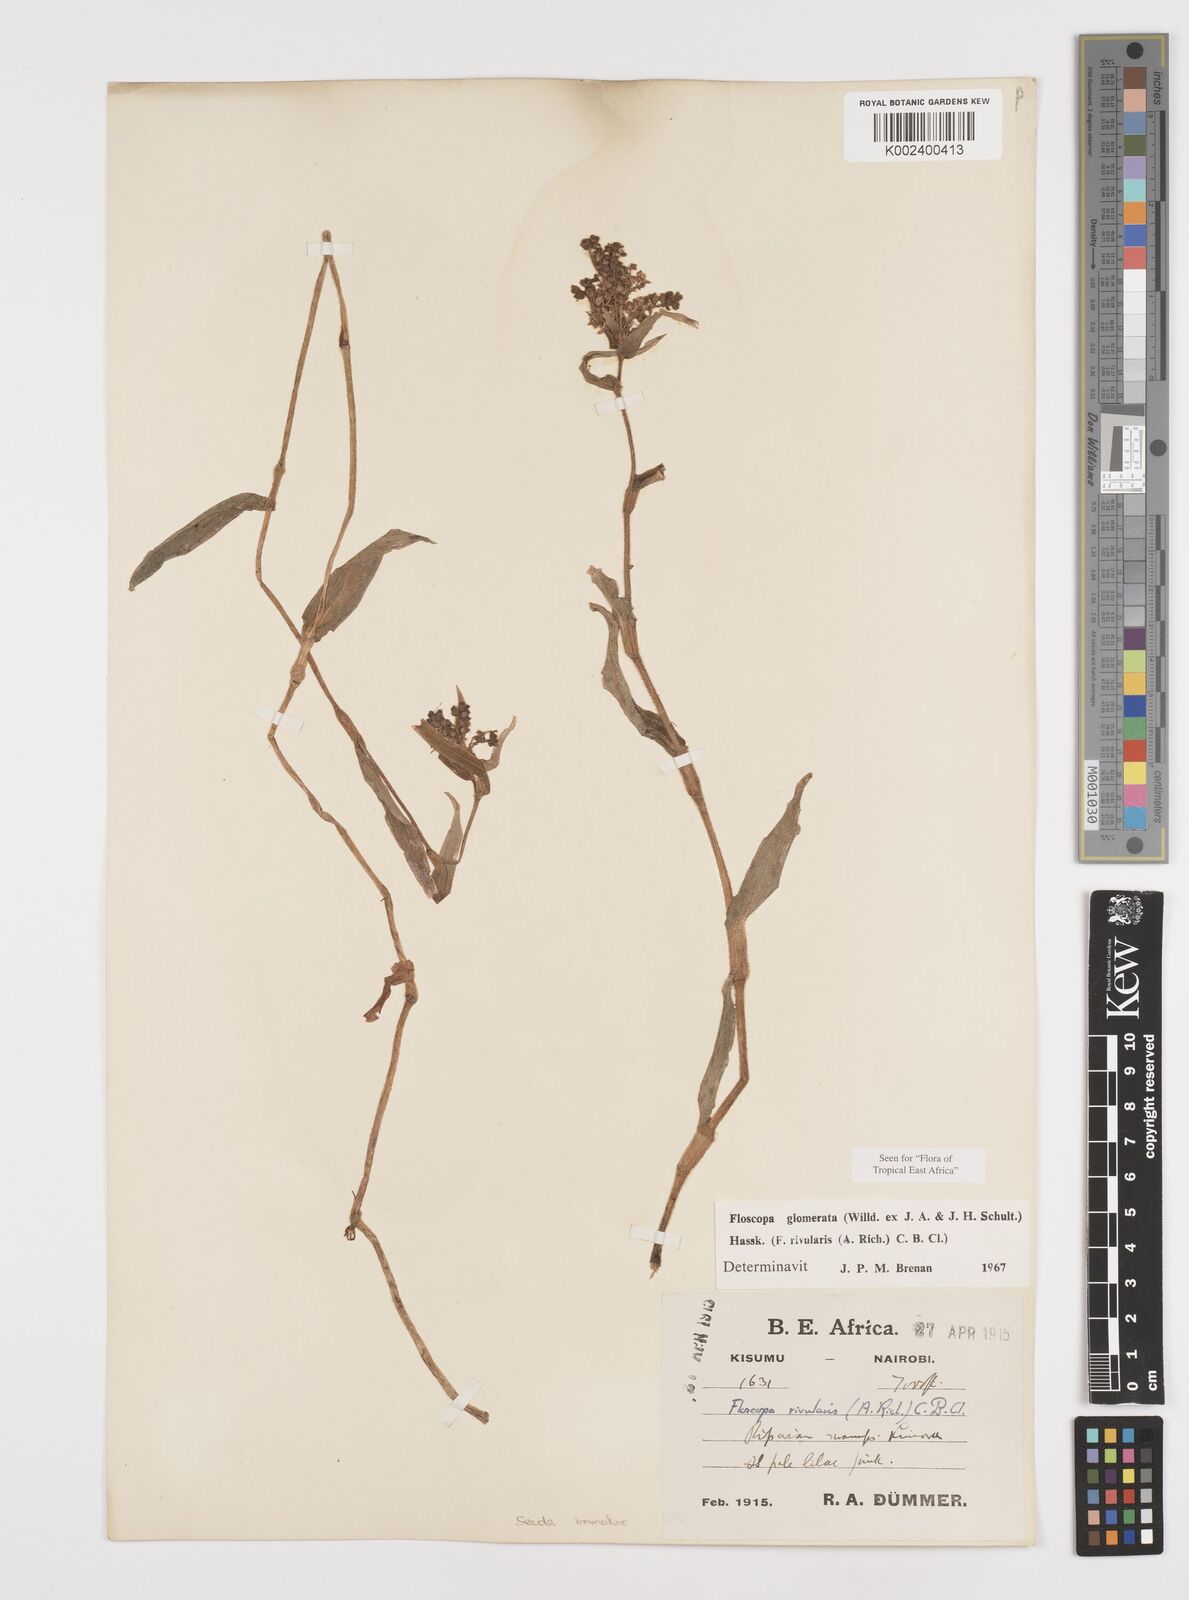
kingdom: Plantae
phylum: Tracheophyta
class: Liliopsida
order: Commelinales
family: Commelinaceae
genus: Floscopa
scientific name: Floscopa glomerata
